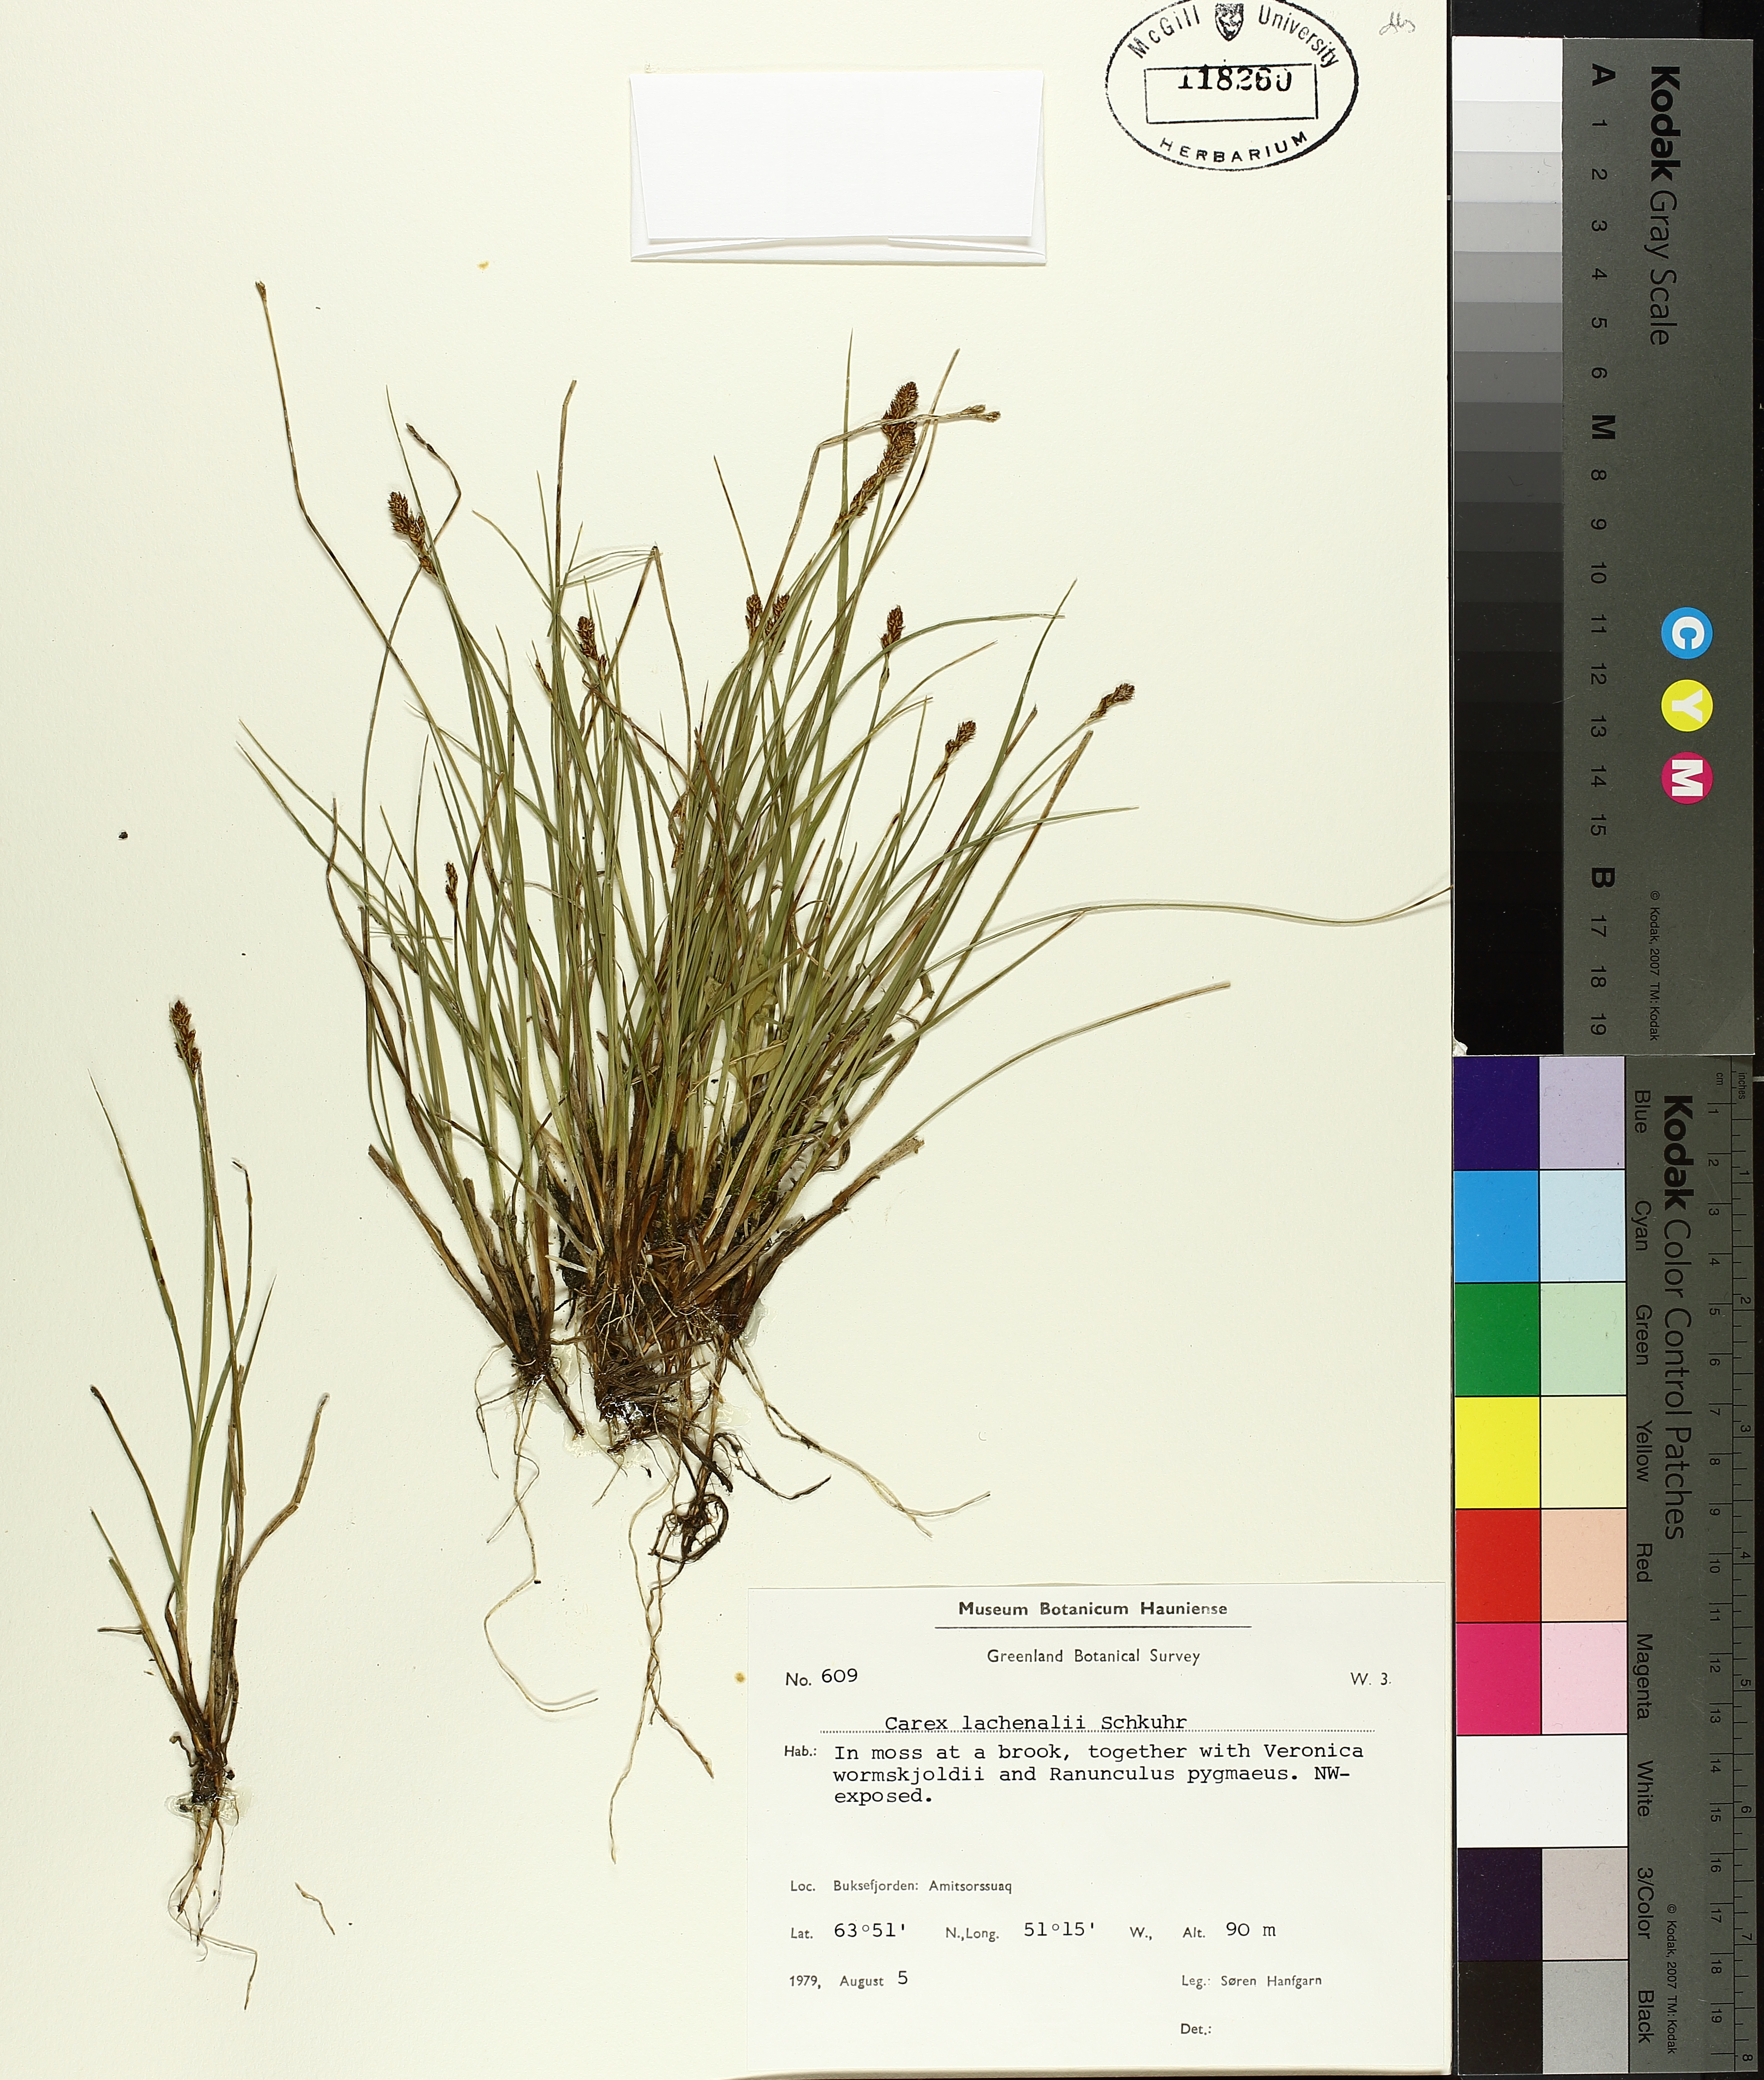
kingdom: Plantae
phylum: Tracheophyta
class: Liliopsida
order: Poales
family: Cyperaceae
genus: Carex
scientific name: Carex lachenalii
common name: Hare's-foot sedge
